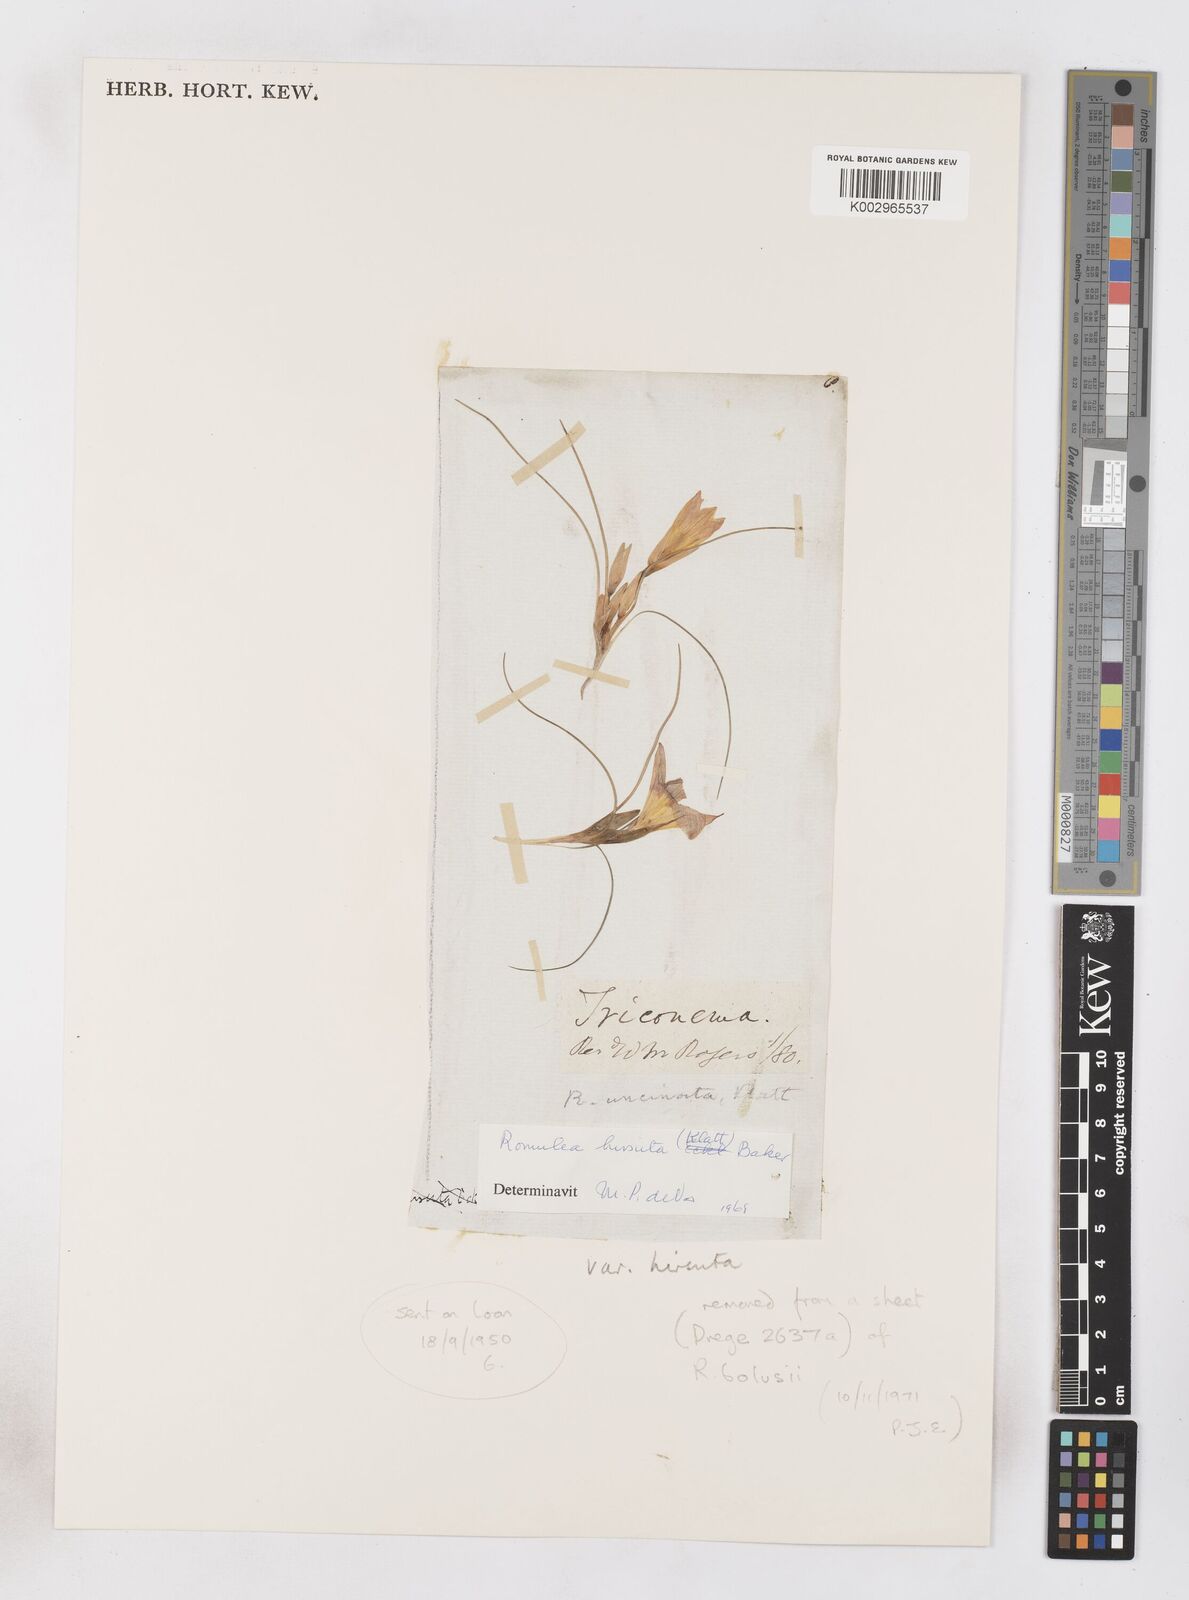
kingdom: Plantae
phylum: Tracheophyta
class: Liliopsida
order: Asparagales
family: Iridaceae
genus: Romulea
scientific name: Romulea hirsuta
